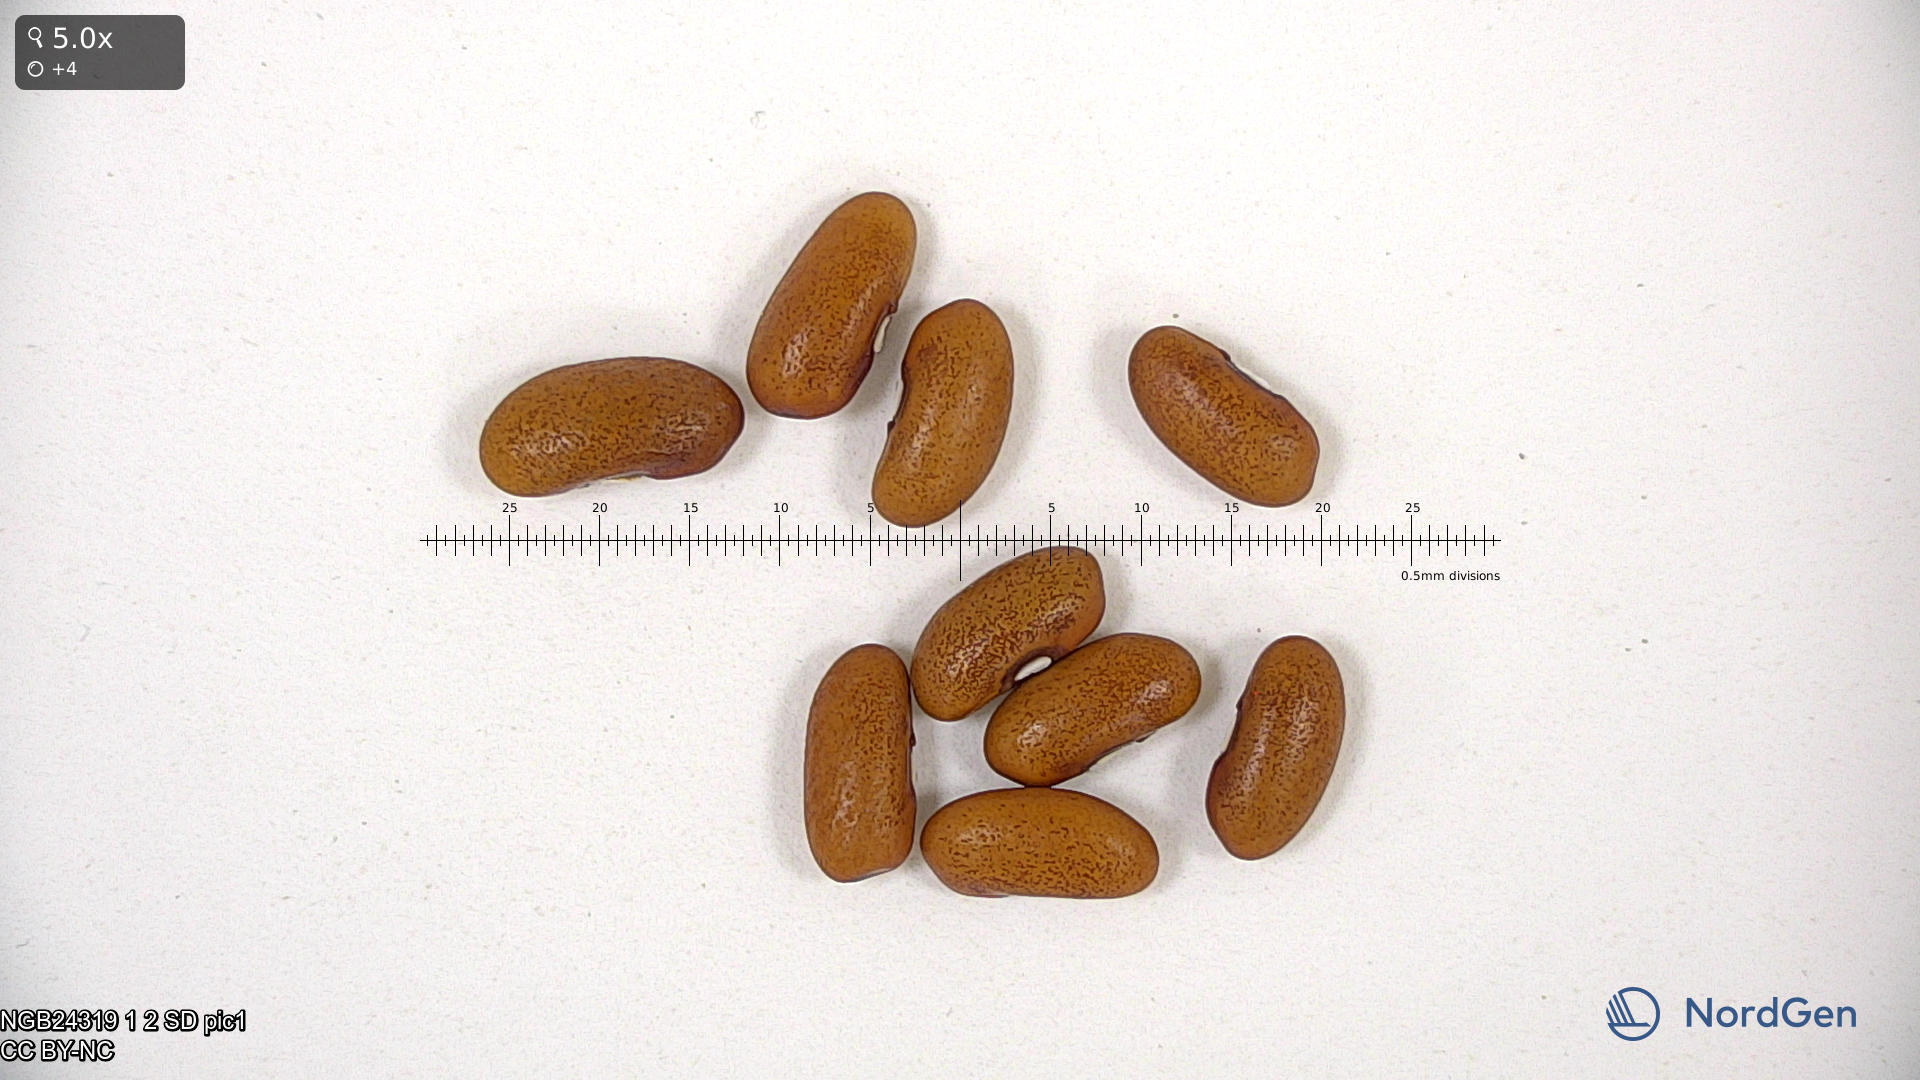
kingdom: Plantae
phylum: Tracheophyta
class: Magnoliopsida
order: Fabales
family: Fabaceae
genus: Phaseolus
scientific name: Phaseolus vulgaris
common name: Bean
